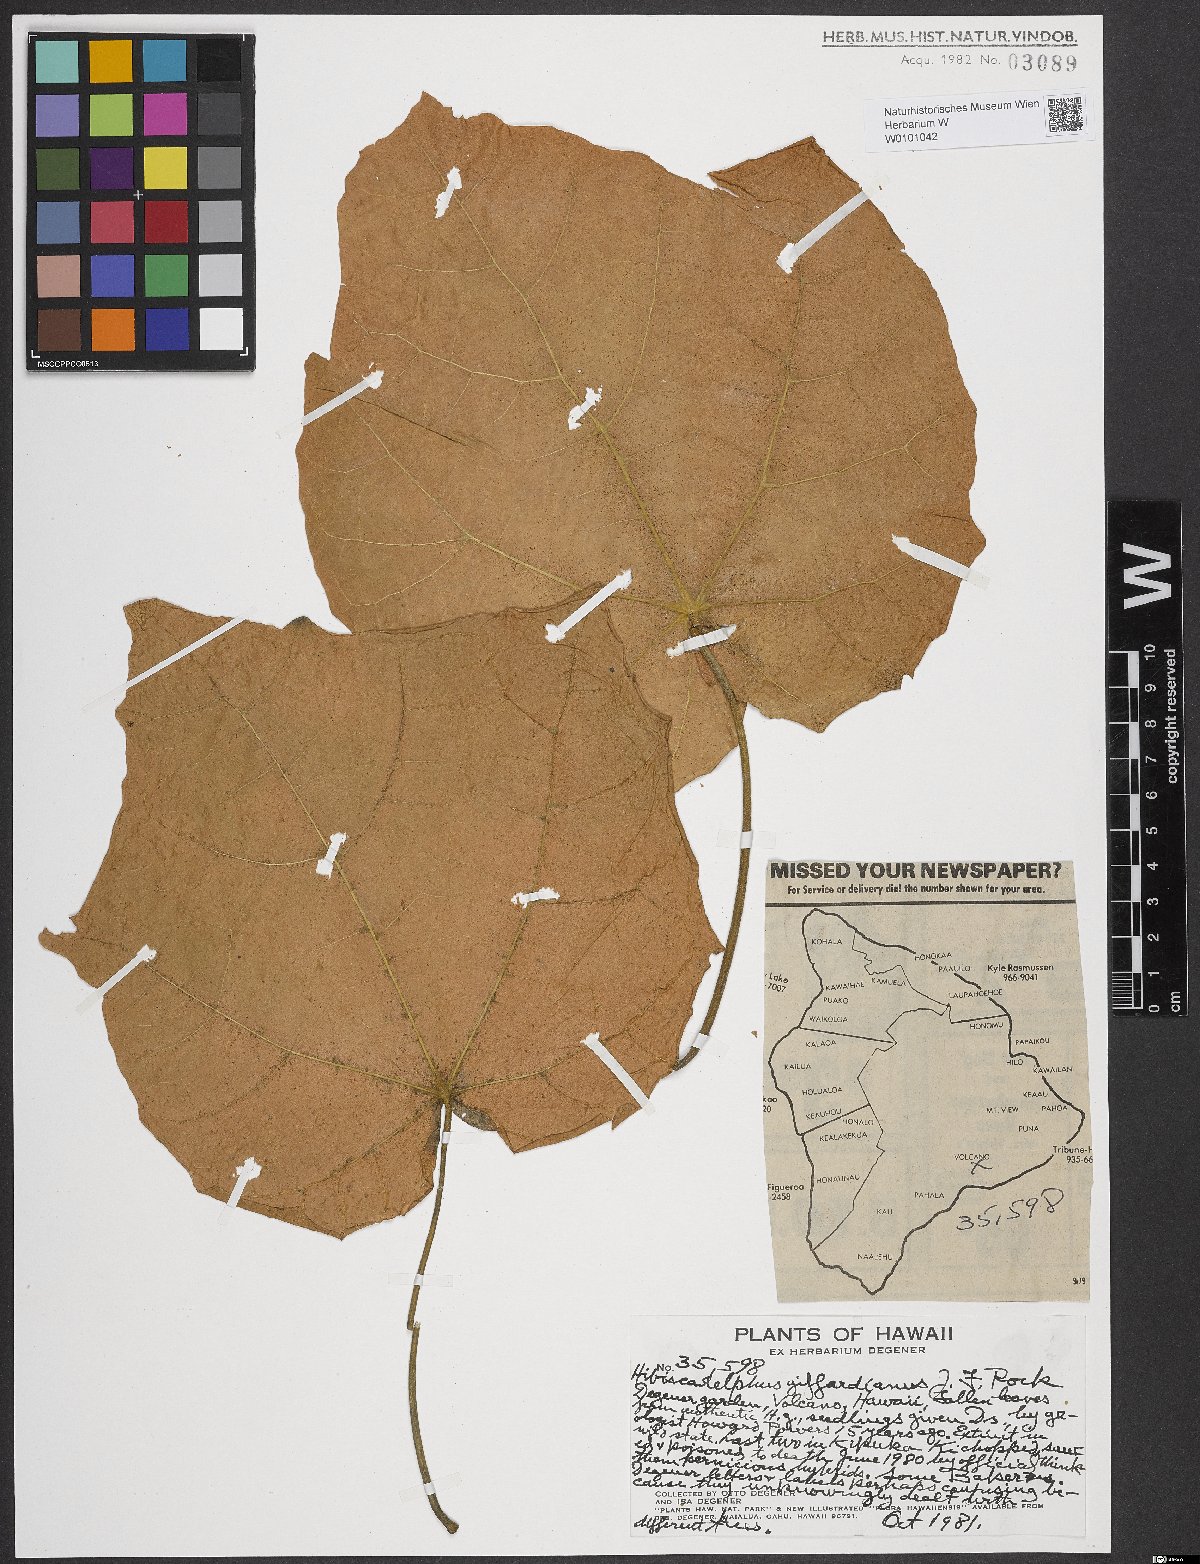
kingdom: Plantae
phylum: Tracheophyta
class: Magnoliopsida
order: Malvales
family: Malvaceae
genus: Hibiscadelphus
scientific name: Hibiscadelphus giffardianus
